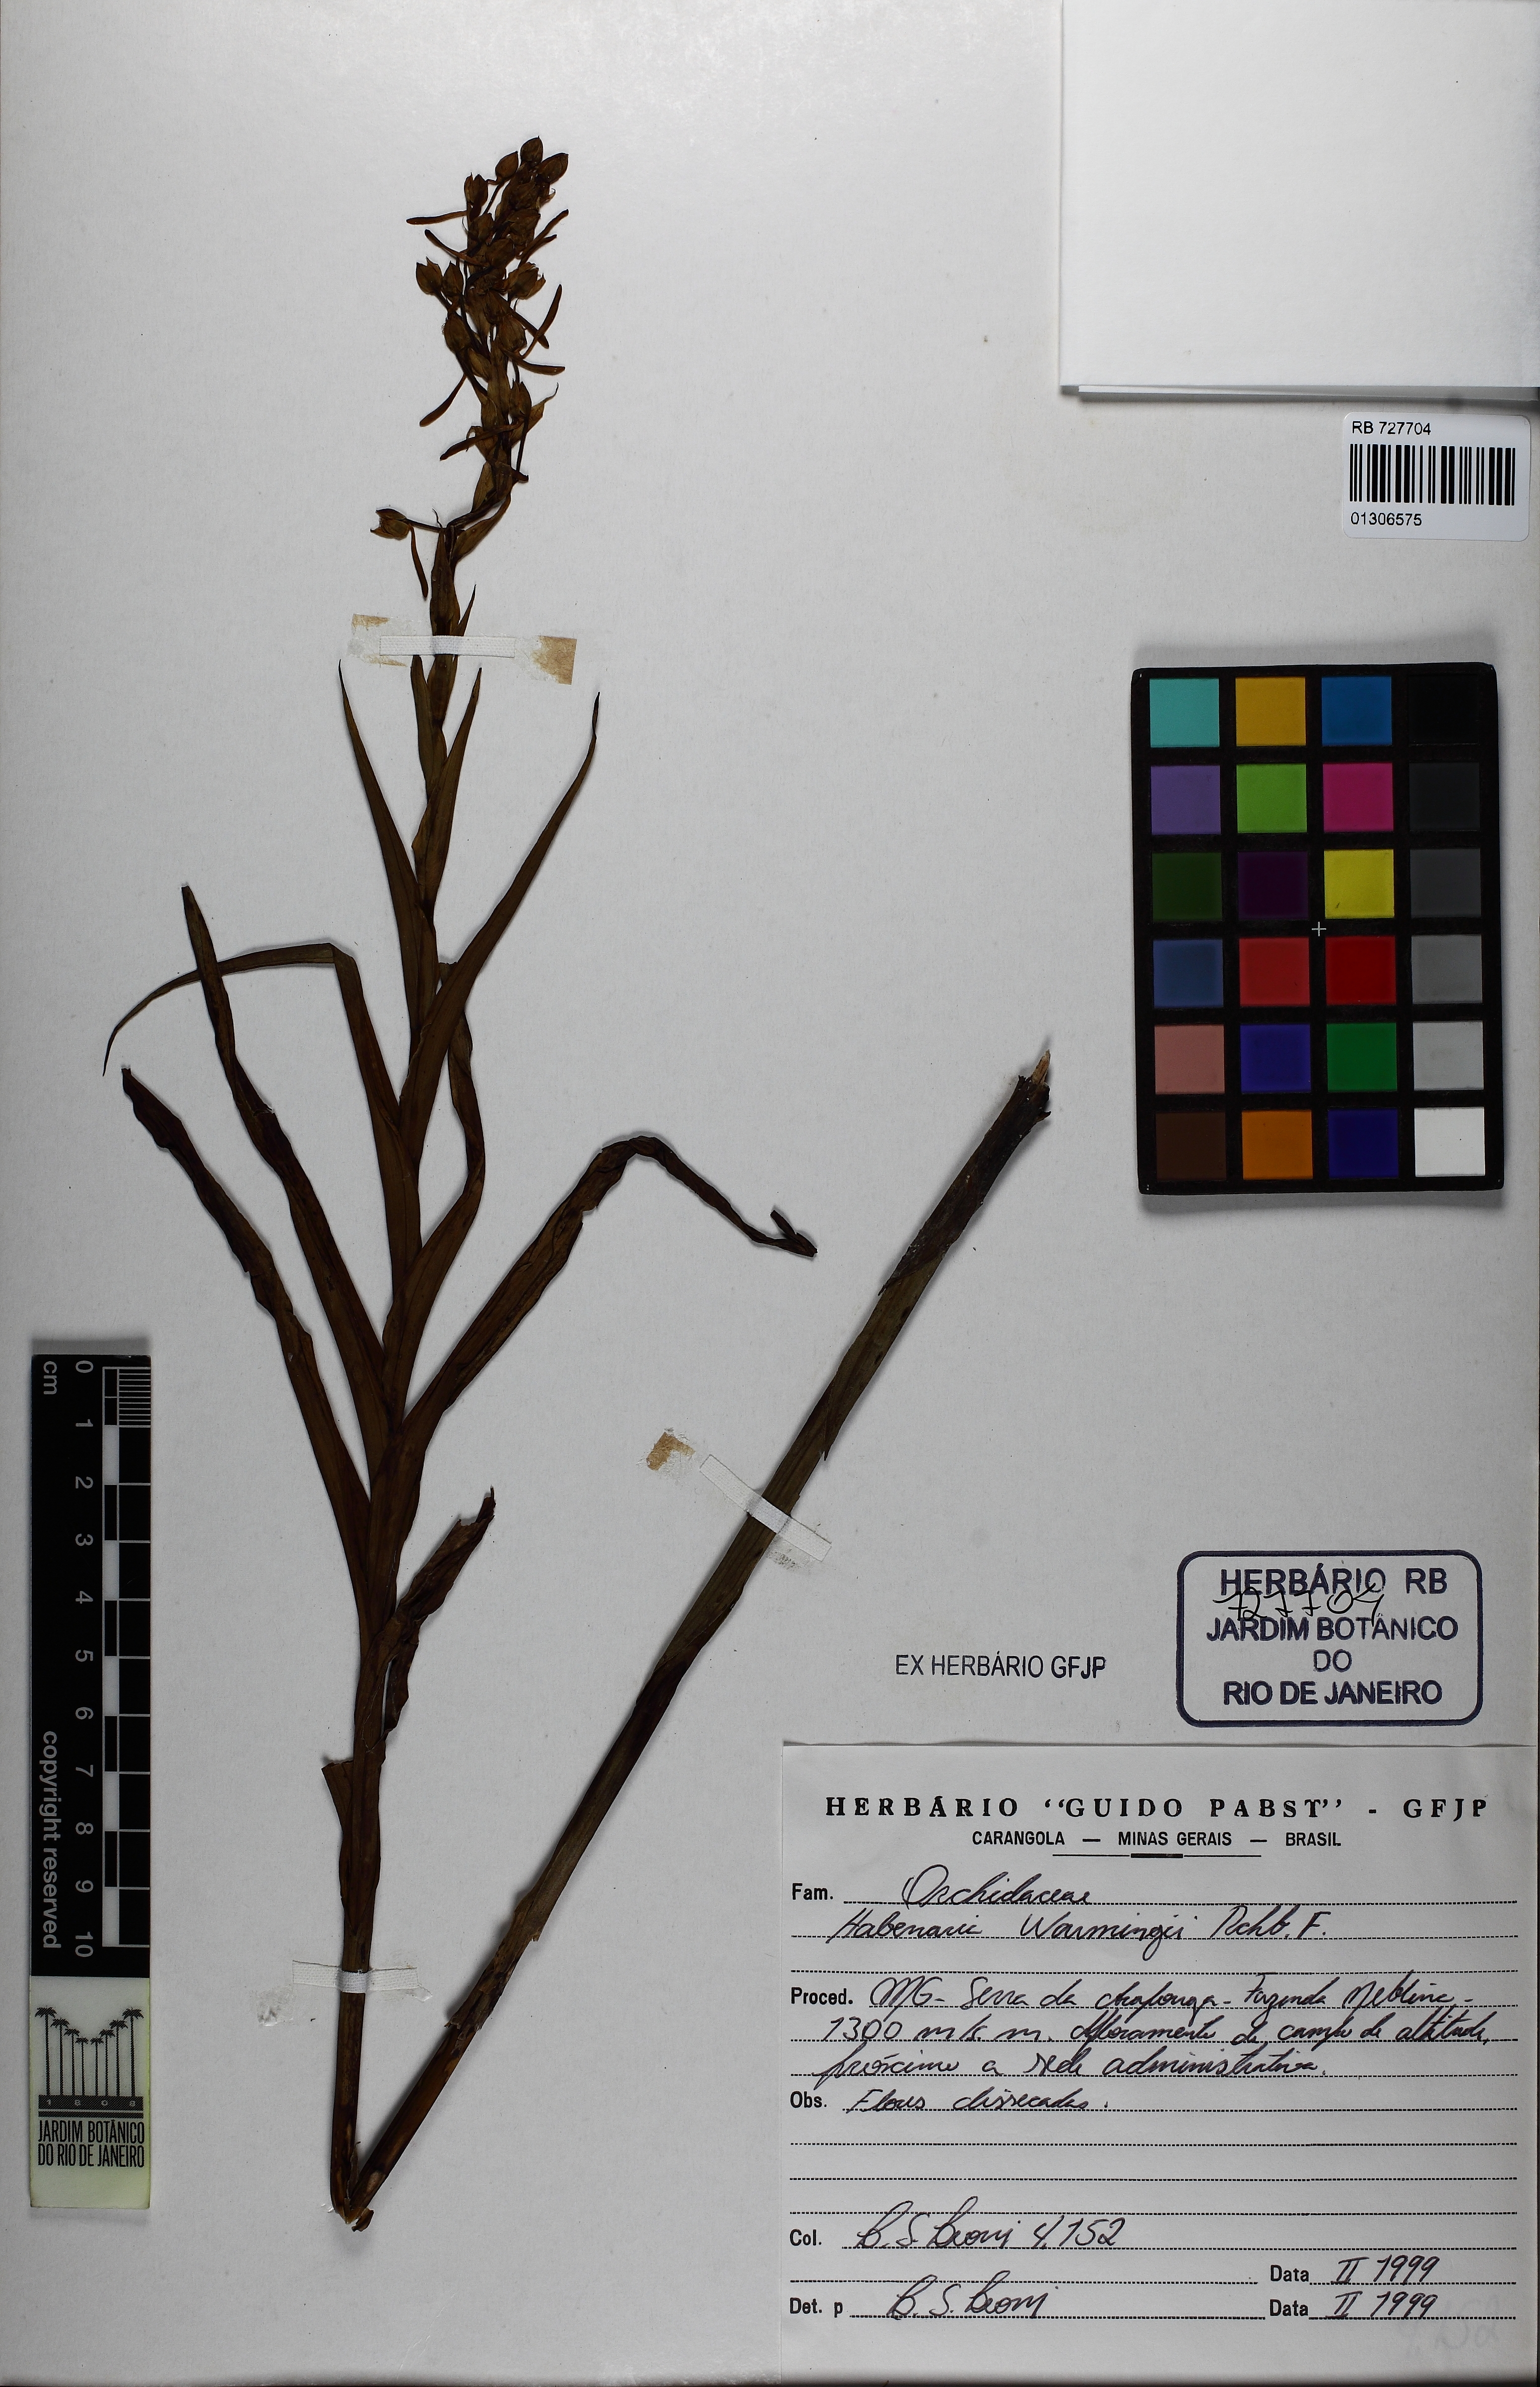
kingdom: Plantae
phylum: Tracheophyta
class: Liliopsida
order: Asparagales
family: Orchidaceae
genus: Habenaria
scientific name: Habenaria warmingii
